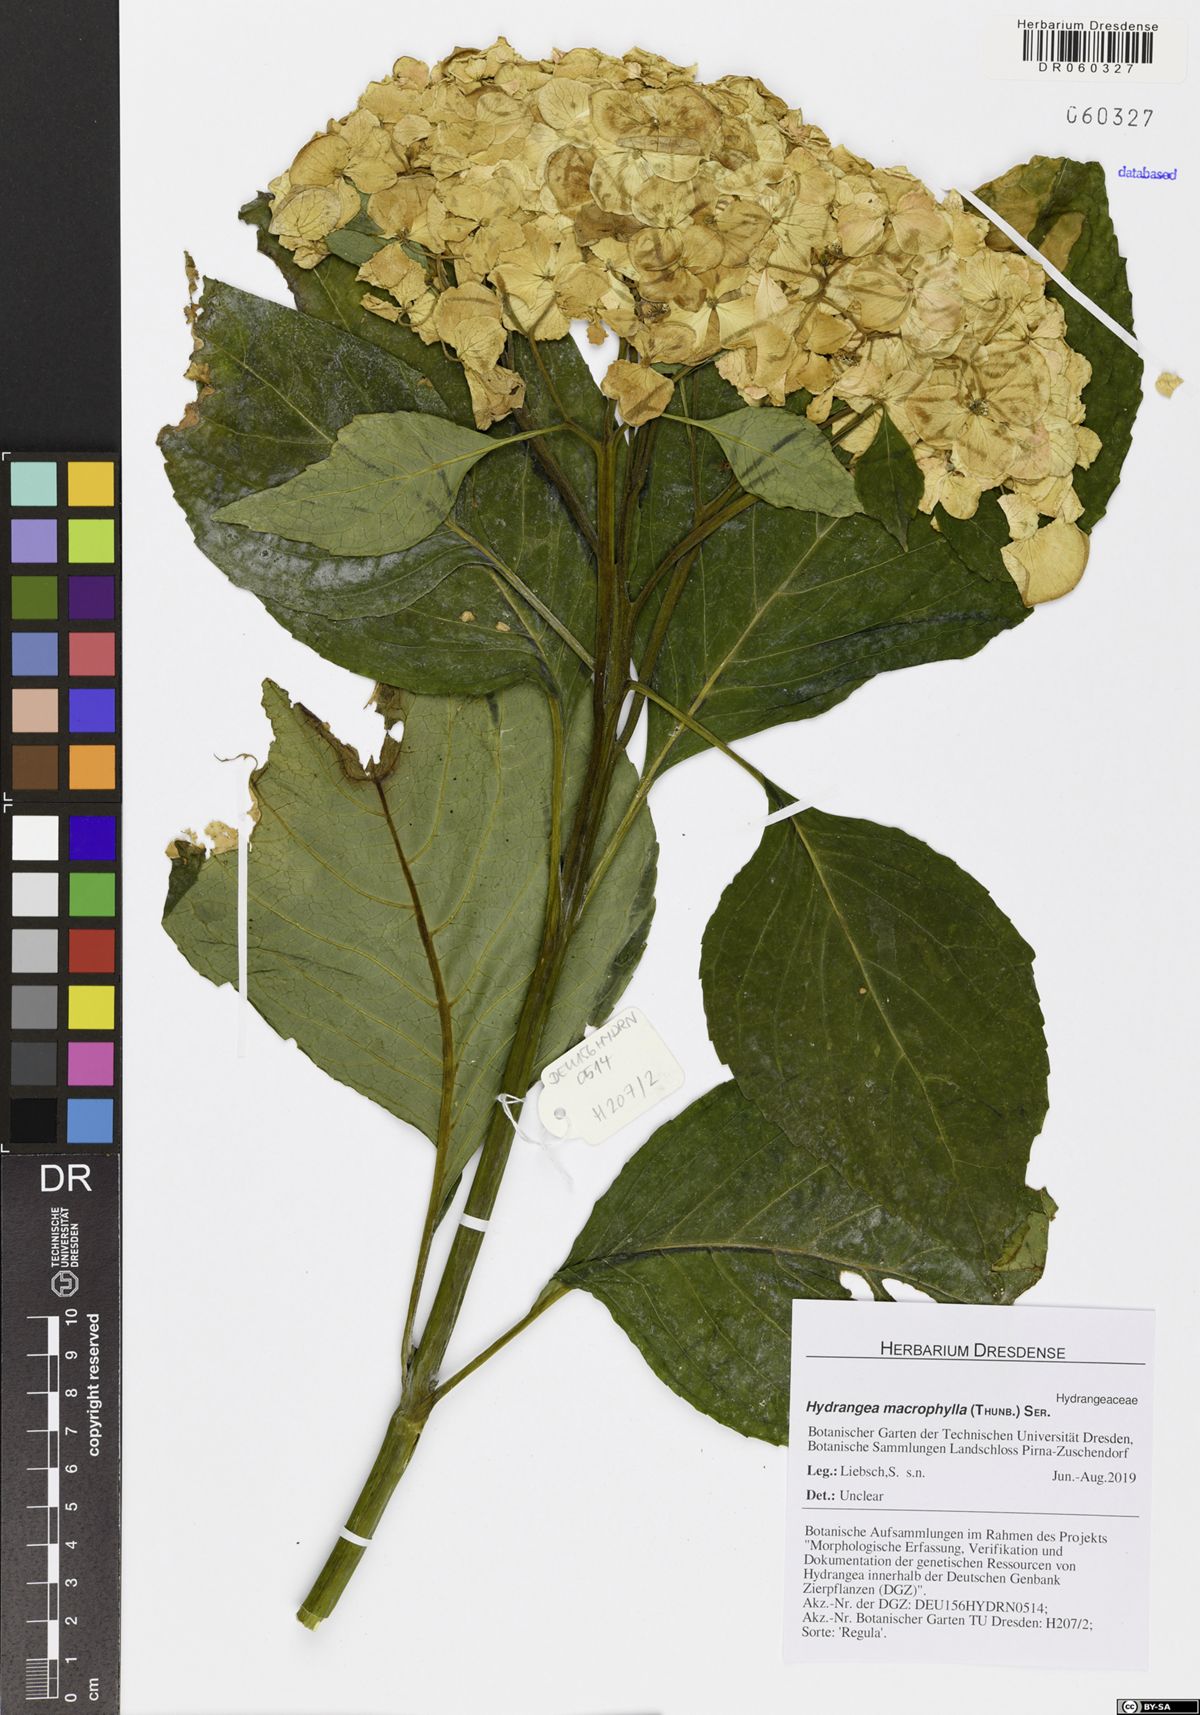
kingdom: Plantae
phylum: Tracheophyta
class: Magnoliopsida
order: Cornales
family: Hydrangeaceae
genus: Hydrangea
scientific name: Hydrangea macrophylla
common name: Hydrangea
